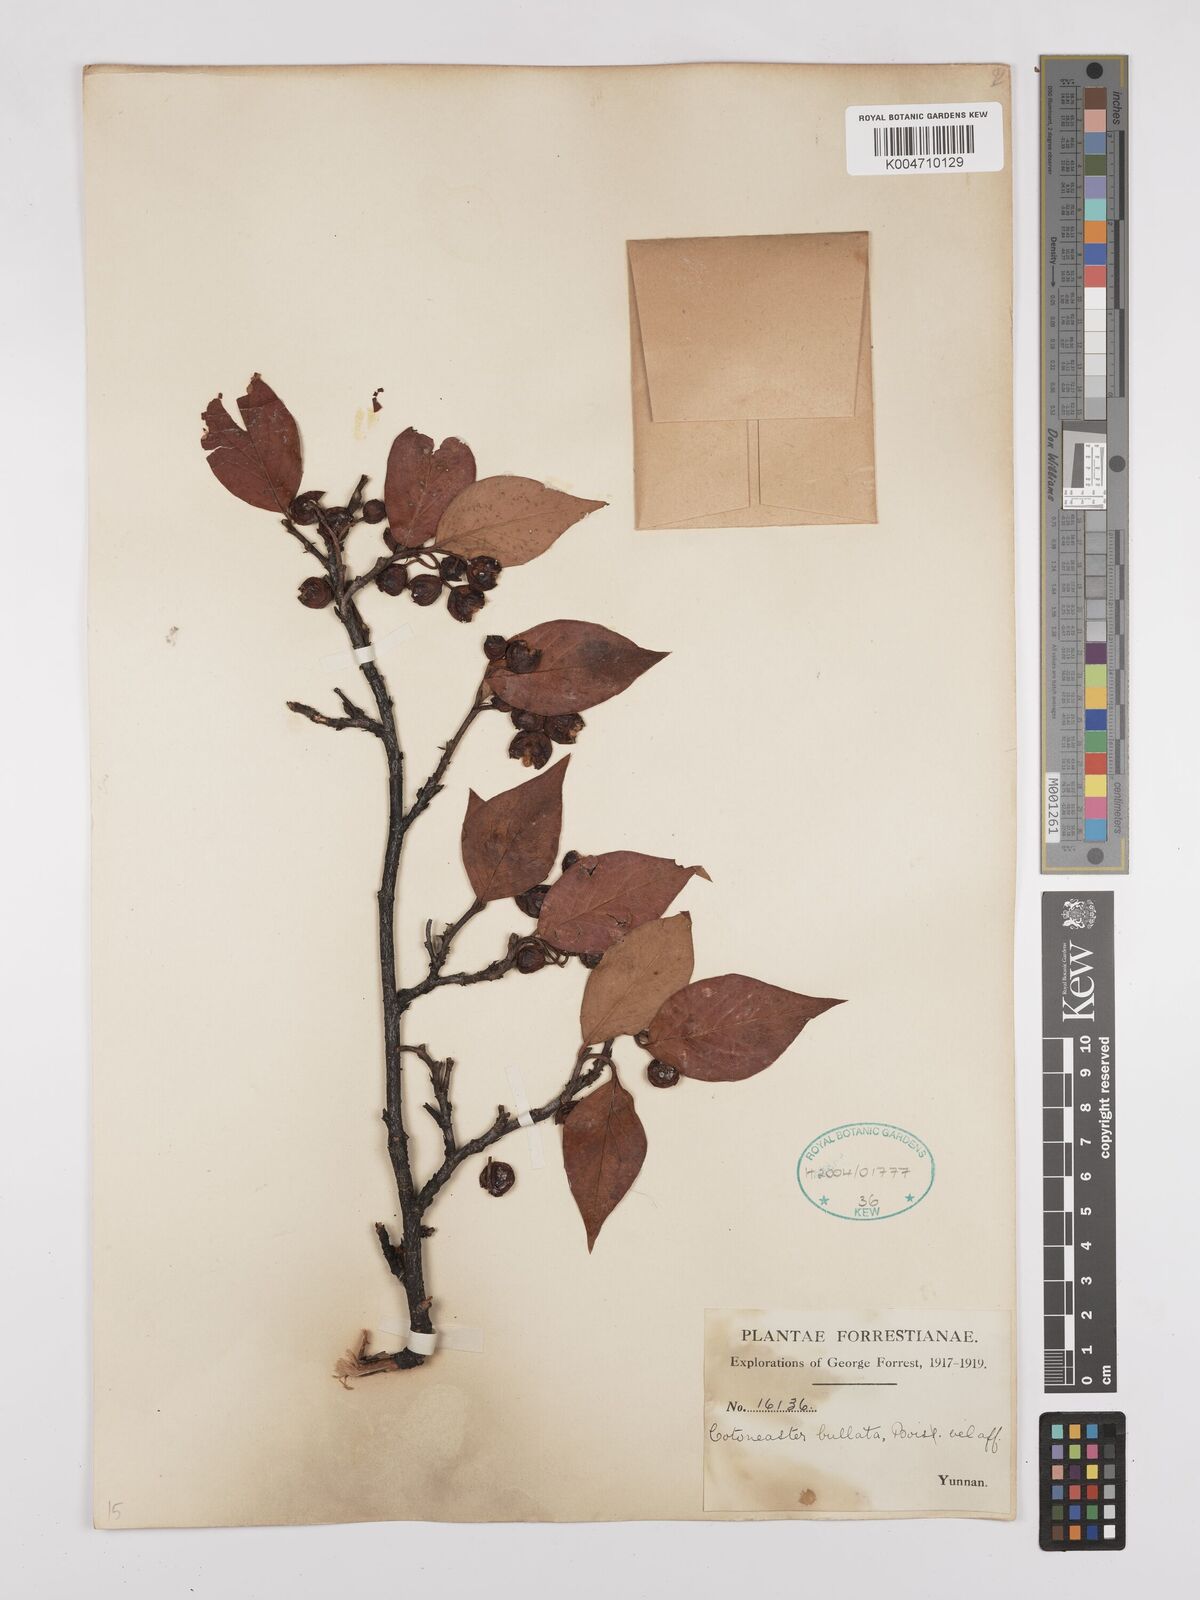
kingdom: Plantae
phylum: Tracheophyta
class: Magnoliopsida
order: Rosales
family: Rosaceae
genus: Cotoneaster
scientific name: Cotoneaster bullatus
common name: Hollyberry cotoneaster
